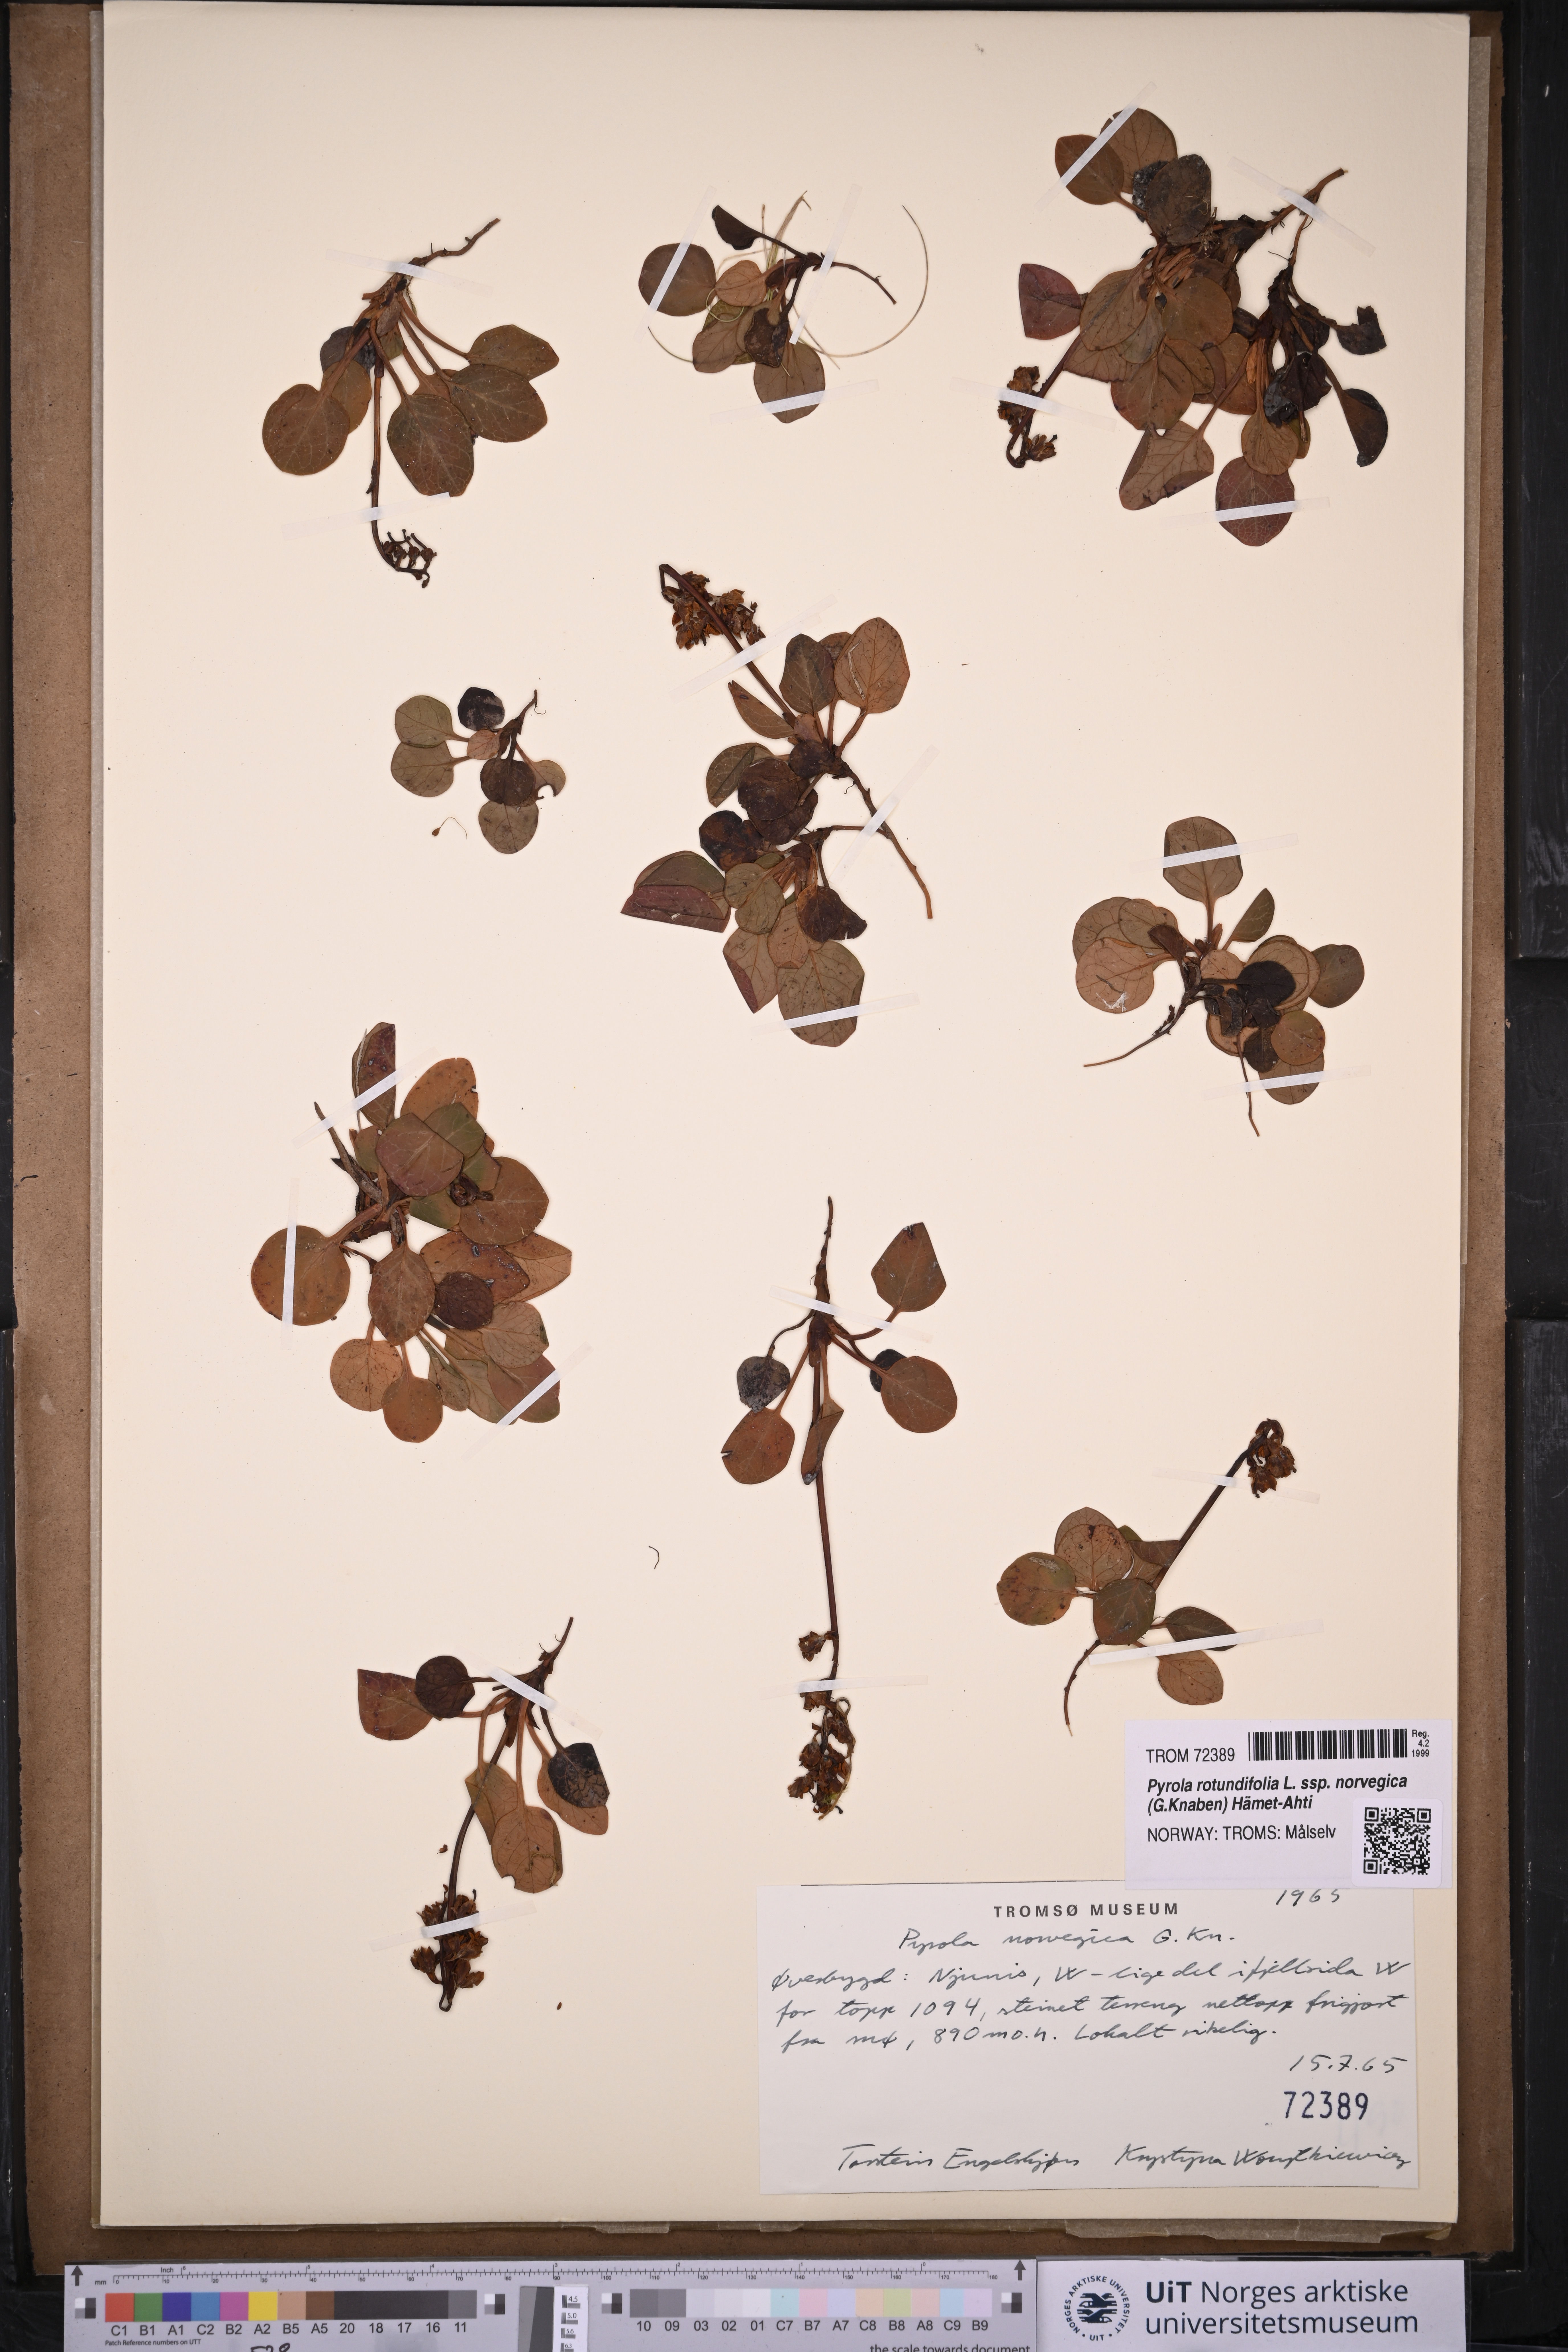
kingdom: Plantae
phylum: Tracheophyta
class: Magnoliopsida
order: Ericales
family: Ericaceae
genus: Pyrola
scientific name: Pyrola rotundifolia
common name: Round-leaved wintergreen
